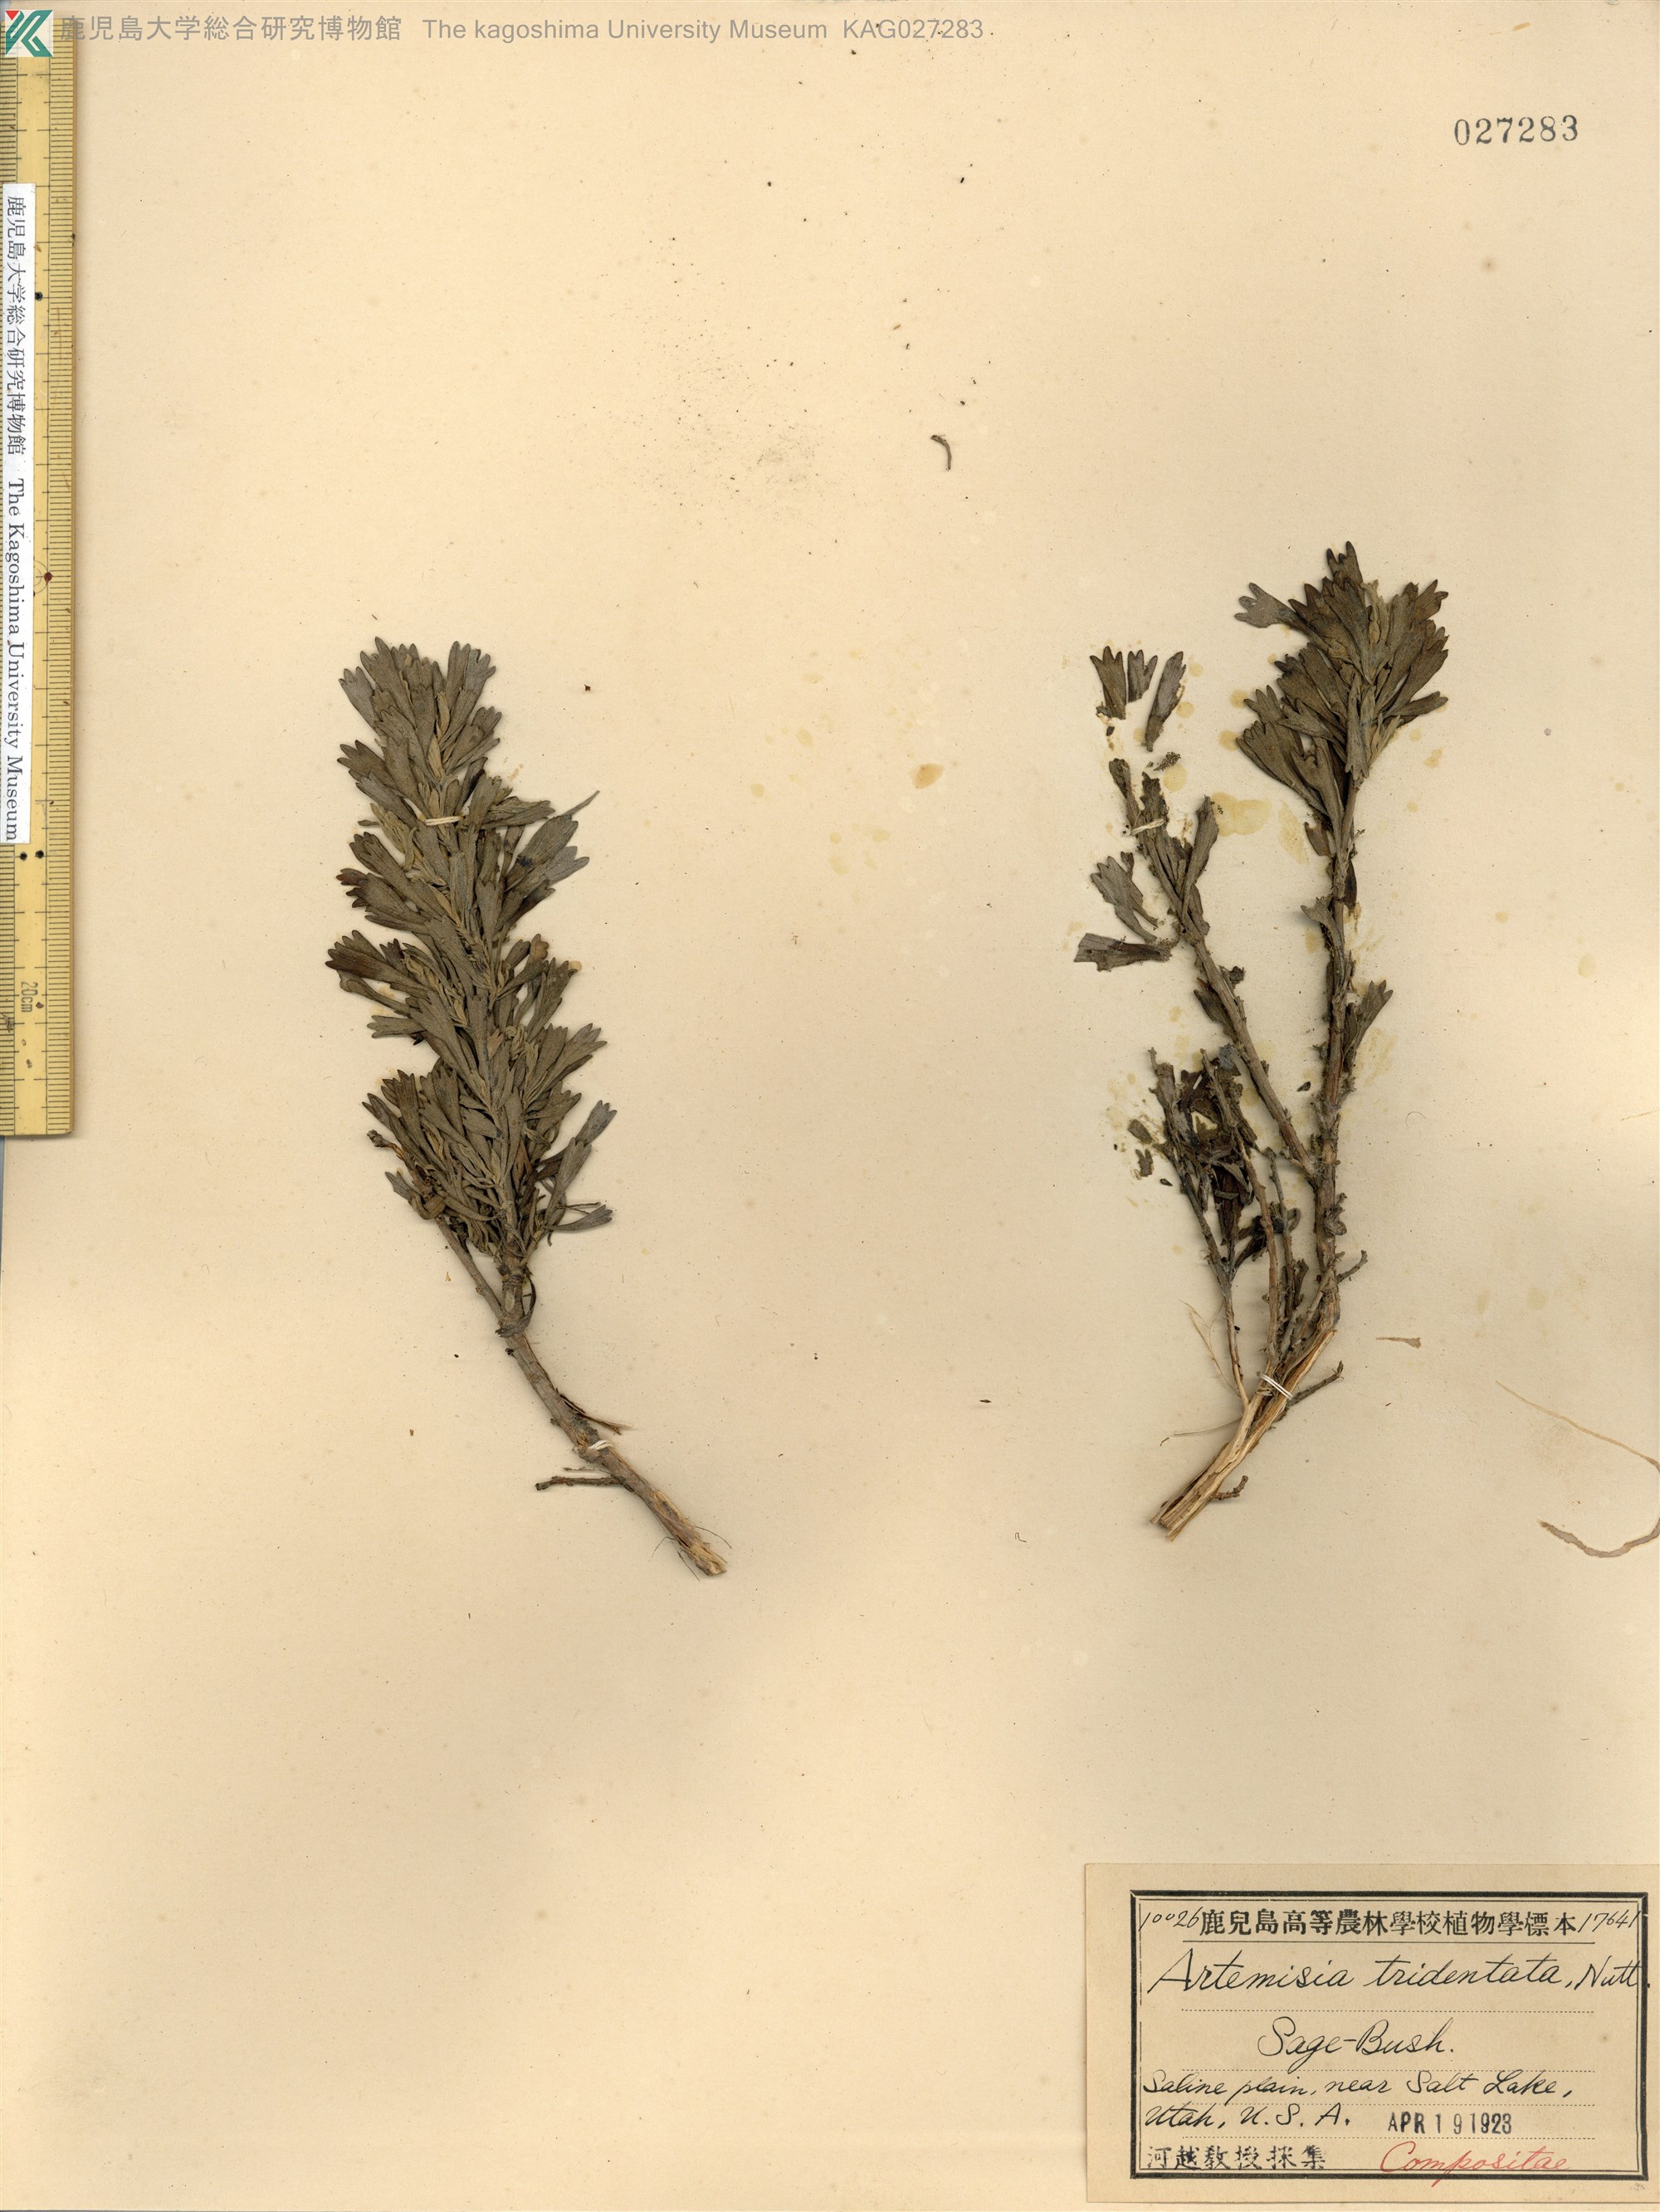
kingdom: Plantae
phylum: Tracheophyta
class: Magnoliopsida
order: Asterales
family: Asteraceae
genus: Artemisia
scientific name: Artemisia tridentata
